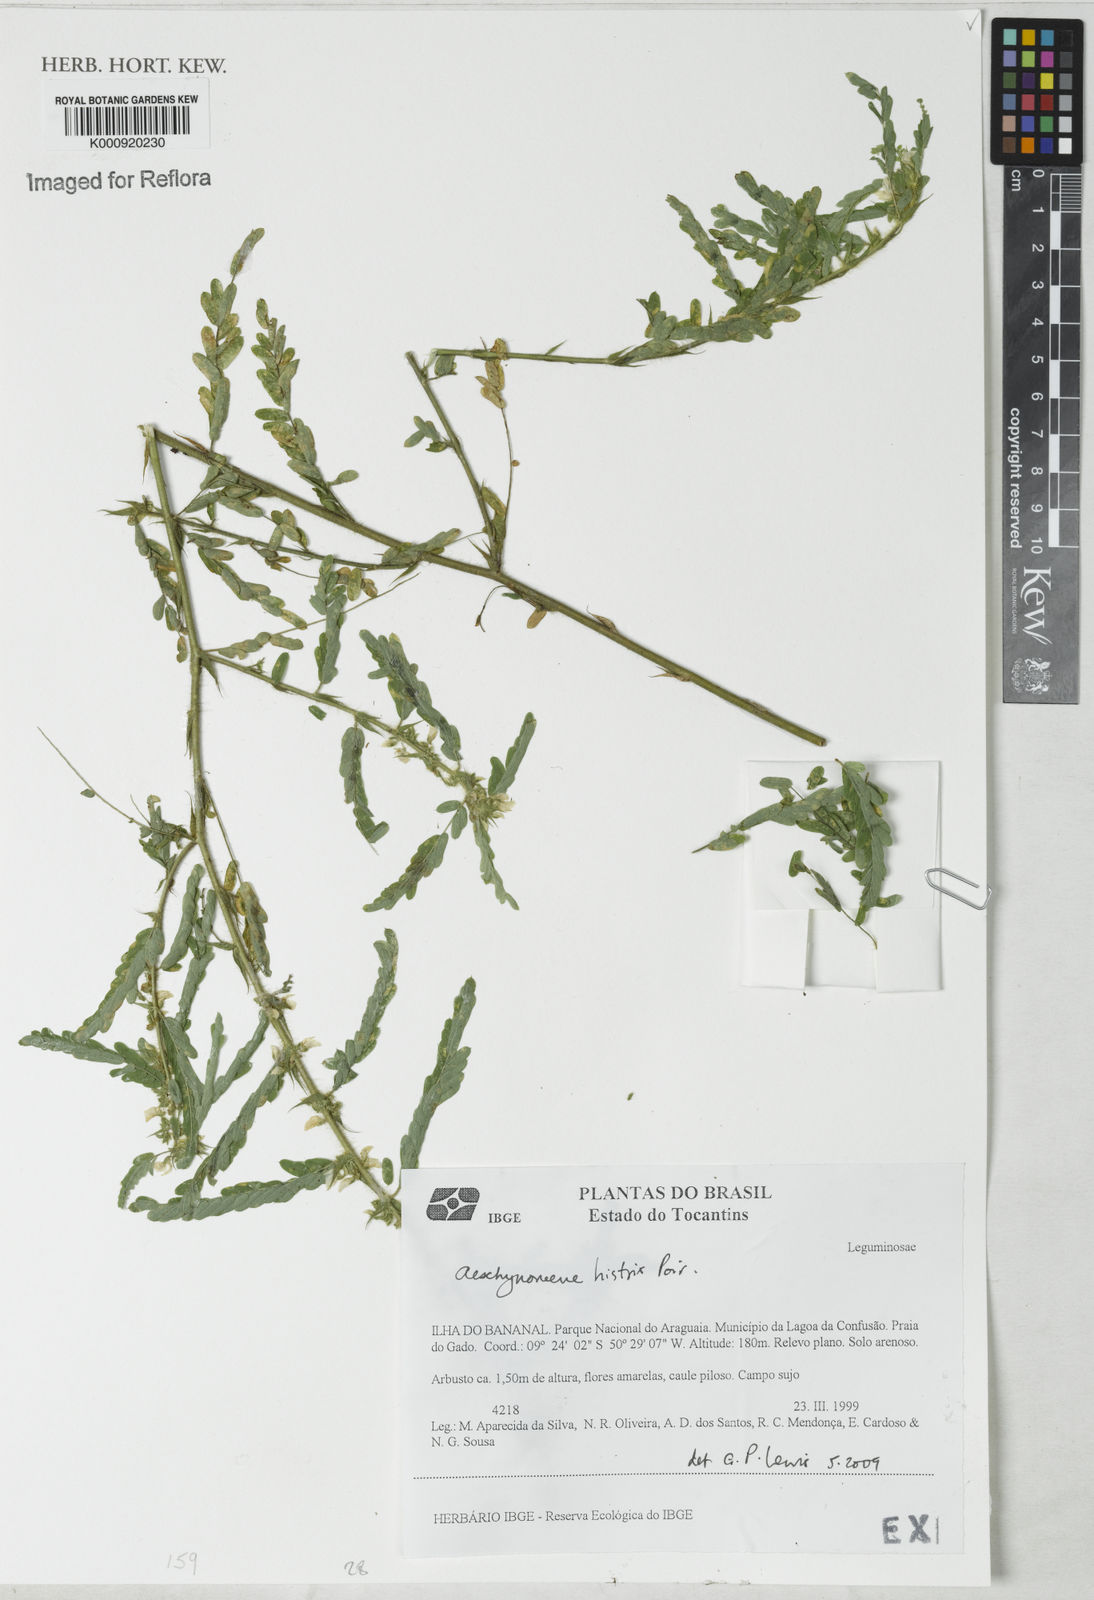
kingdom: Plantae
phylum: Tracheophyta
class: Magnoliopsida
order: Fabales
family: Fabaceae
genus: Ctenodon
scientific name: Ctenodon histrix
